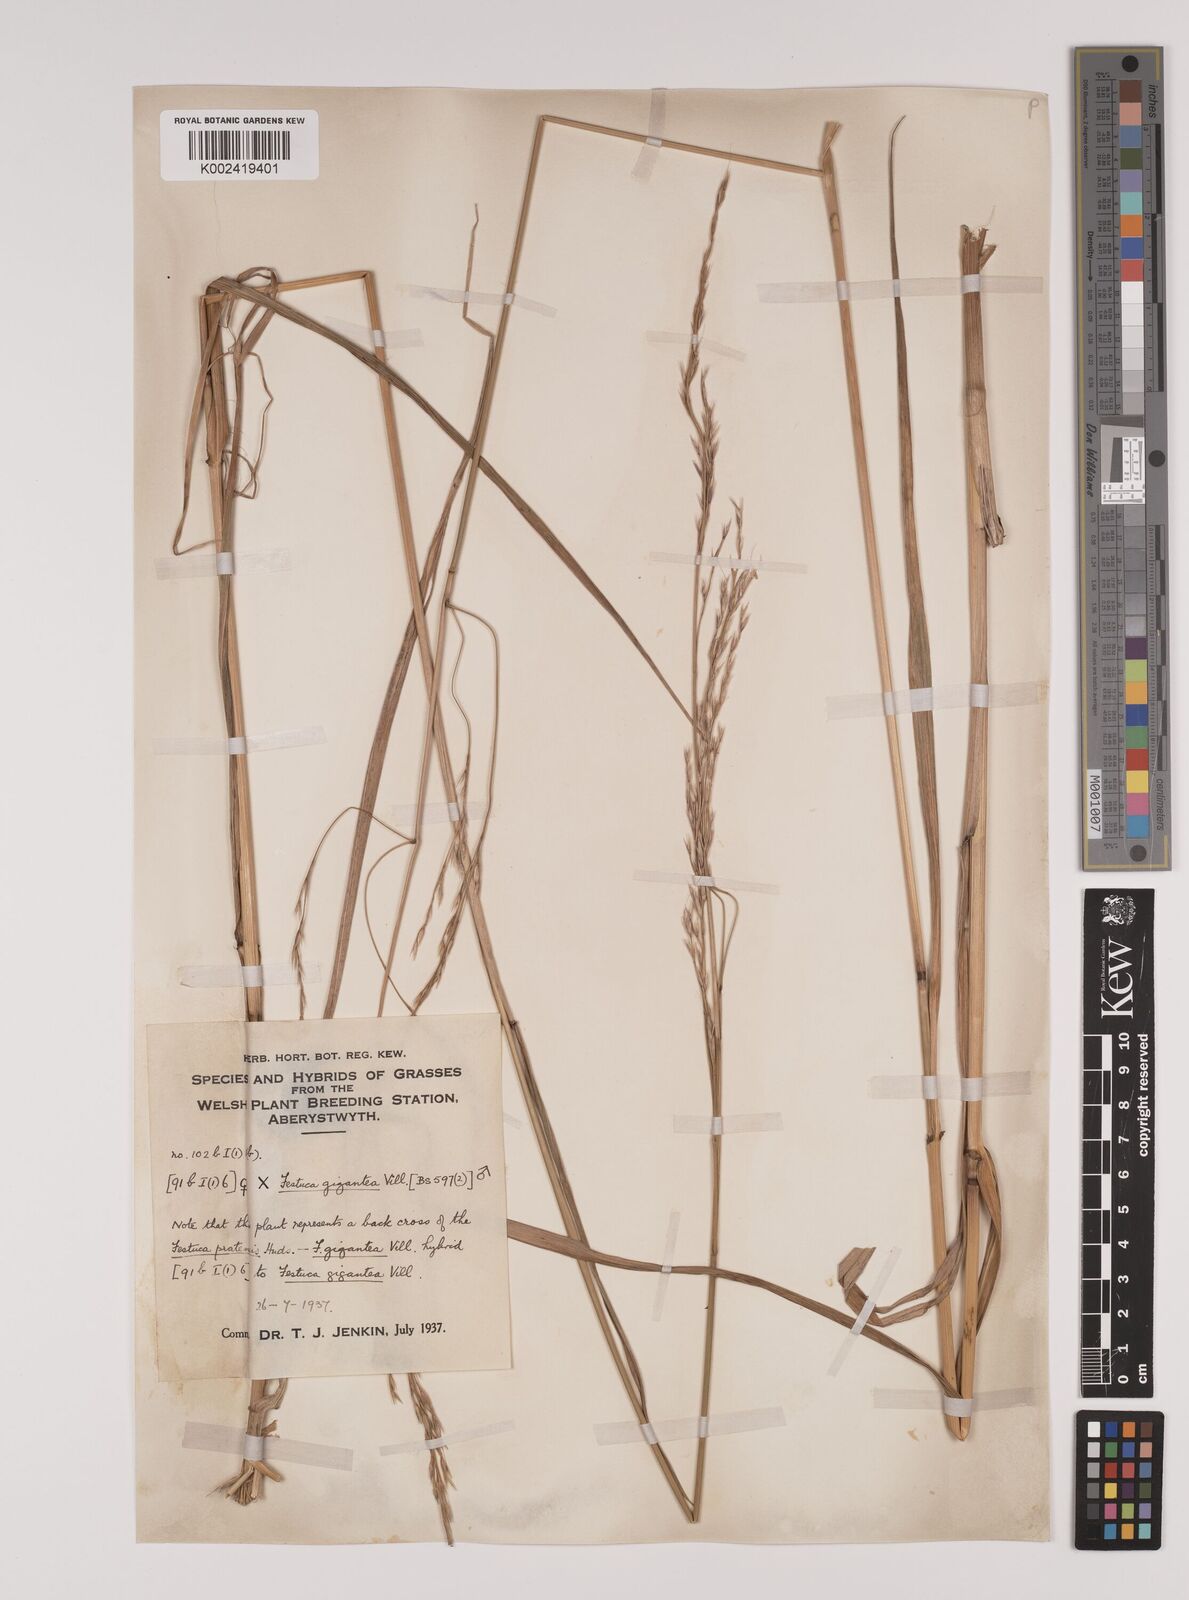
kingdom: Plantae
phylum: Tracheophyta
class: Liliopsida
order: Poales
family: Poaceae
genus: Lolium
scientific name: Lolium giganteum
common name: Giant fescue
